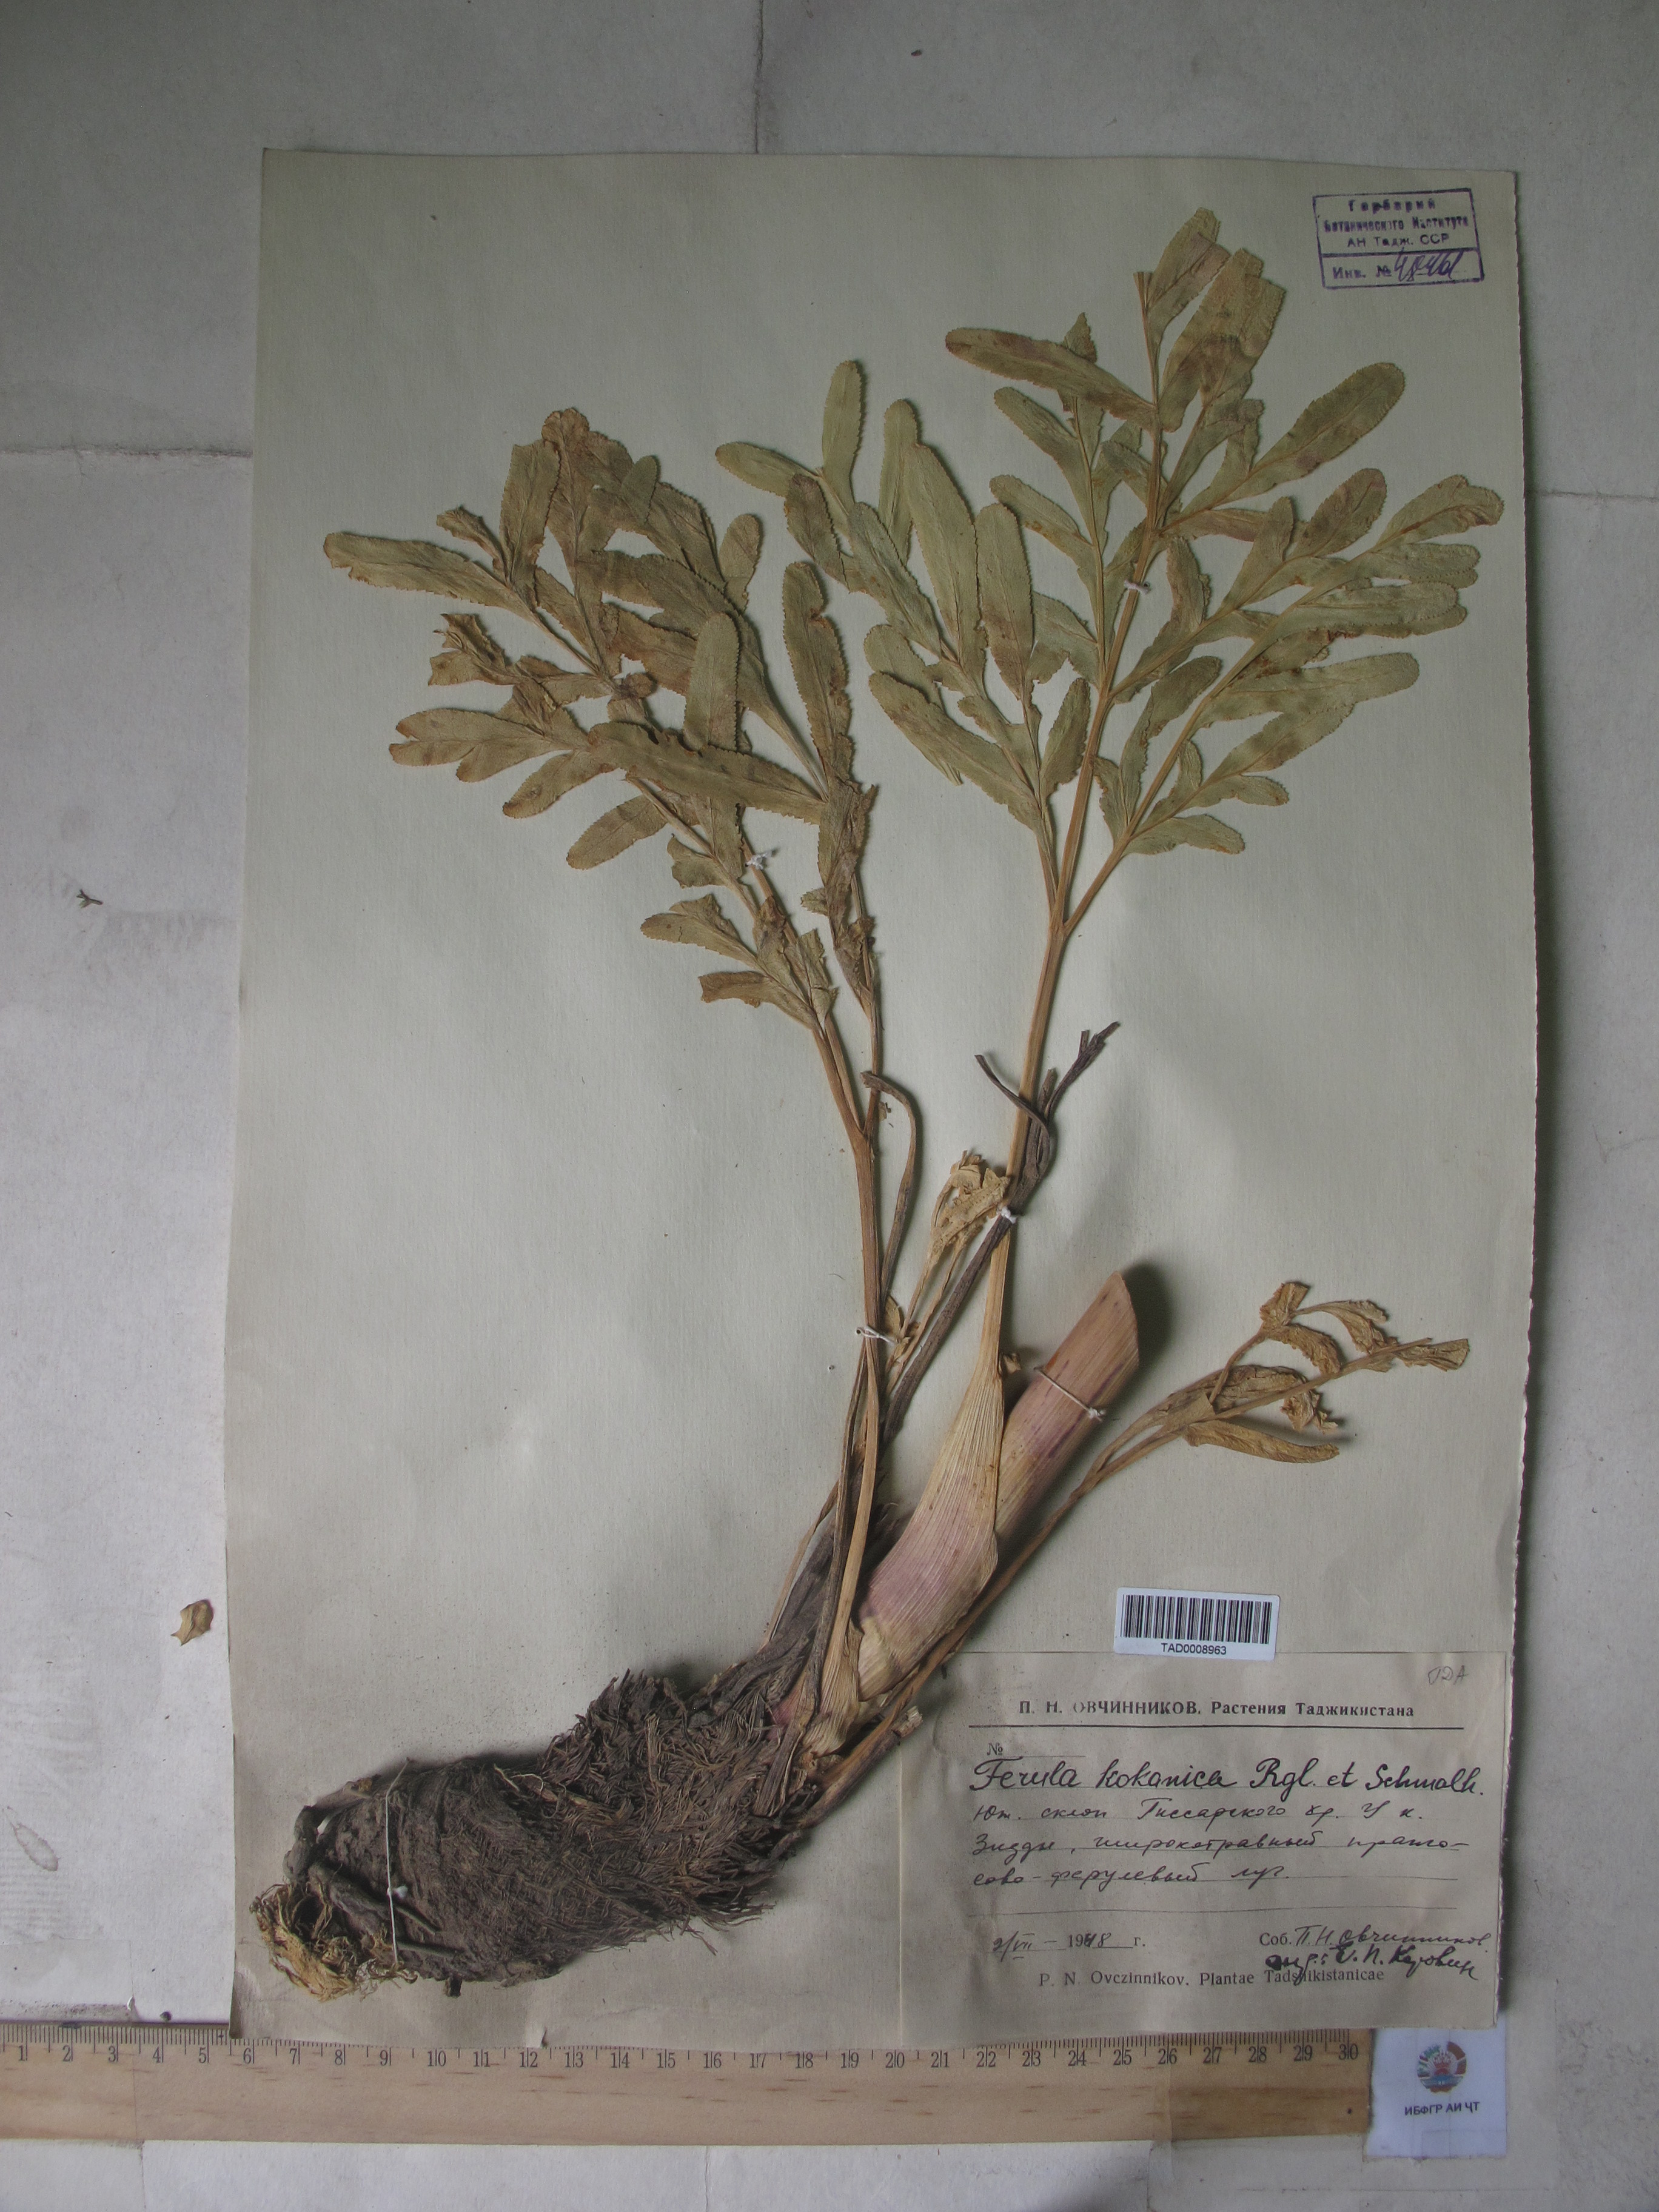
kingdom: Plantae
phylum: Tracheophyta
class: Magnoliopsida
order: Apiales
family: Apiaceae
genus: Ferula
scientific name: Ferula kokanica
